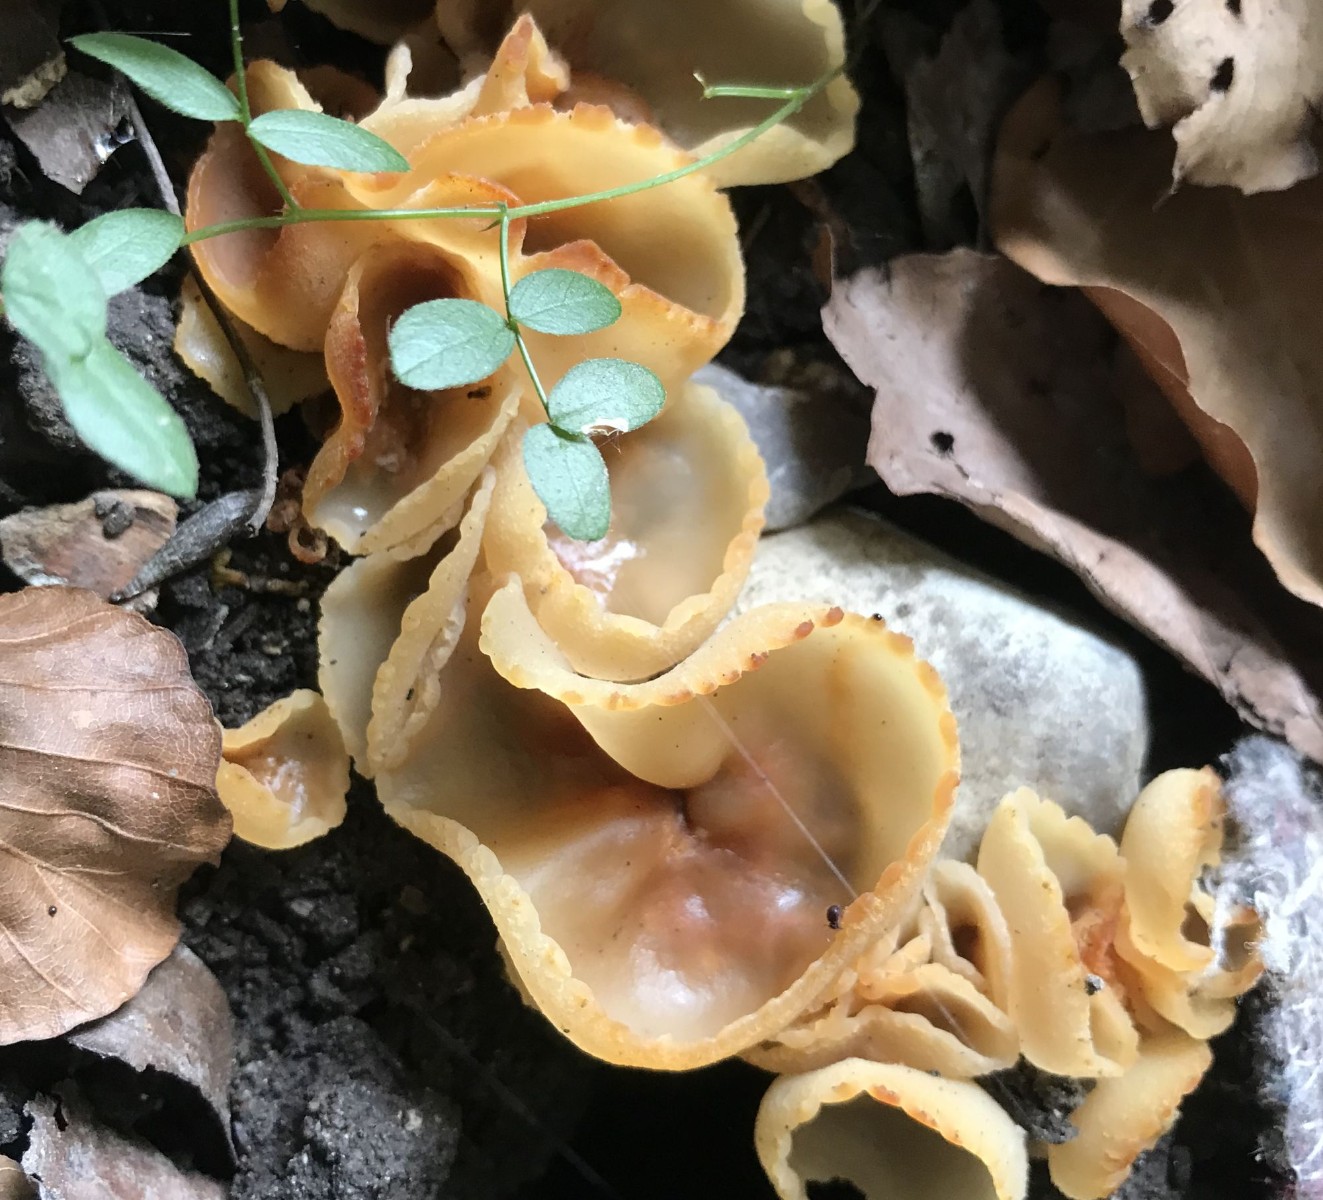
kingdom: Fungi
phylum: Ascomycota
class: Pezizomycetes
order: Pezizales
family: Pezizaceae
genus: Peziza
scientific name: Peziza
